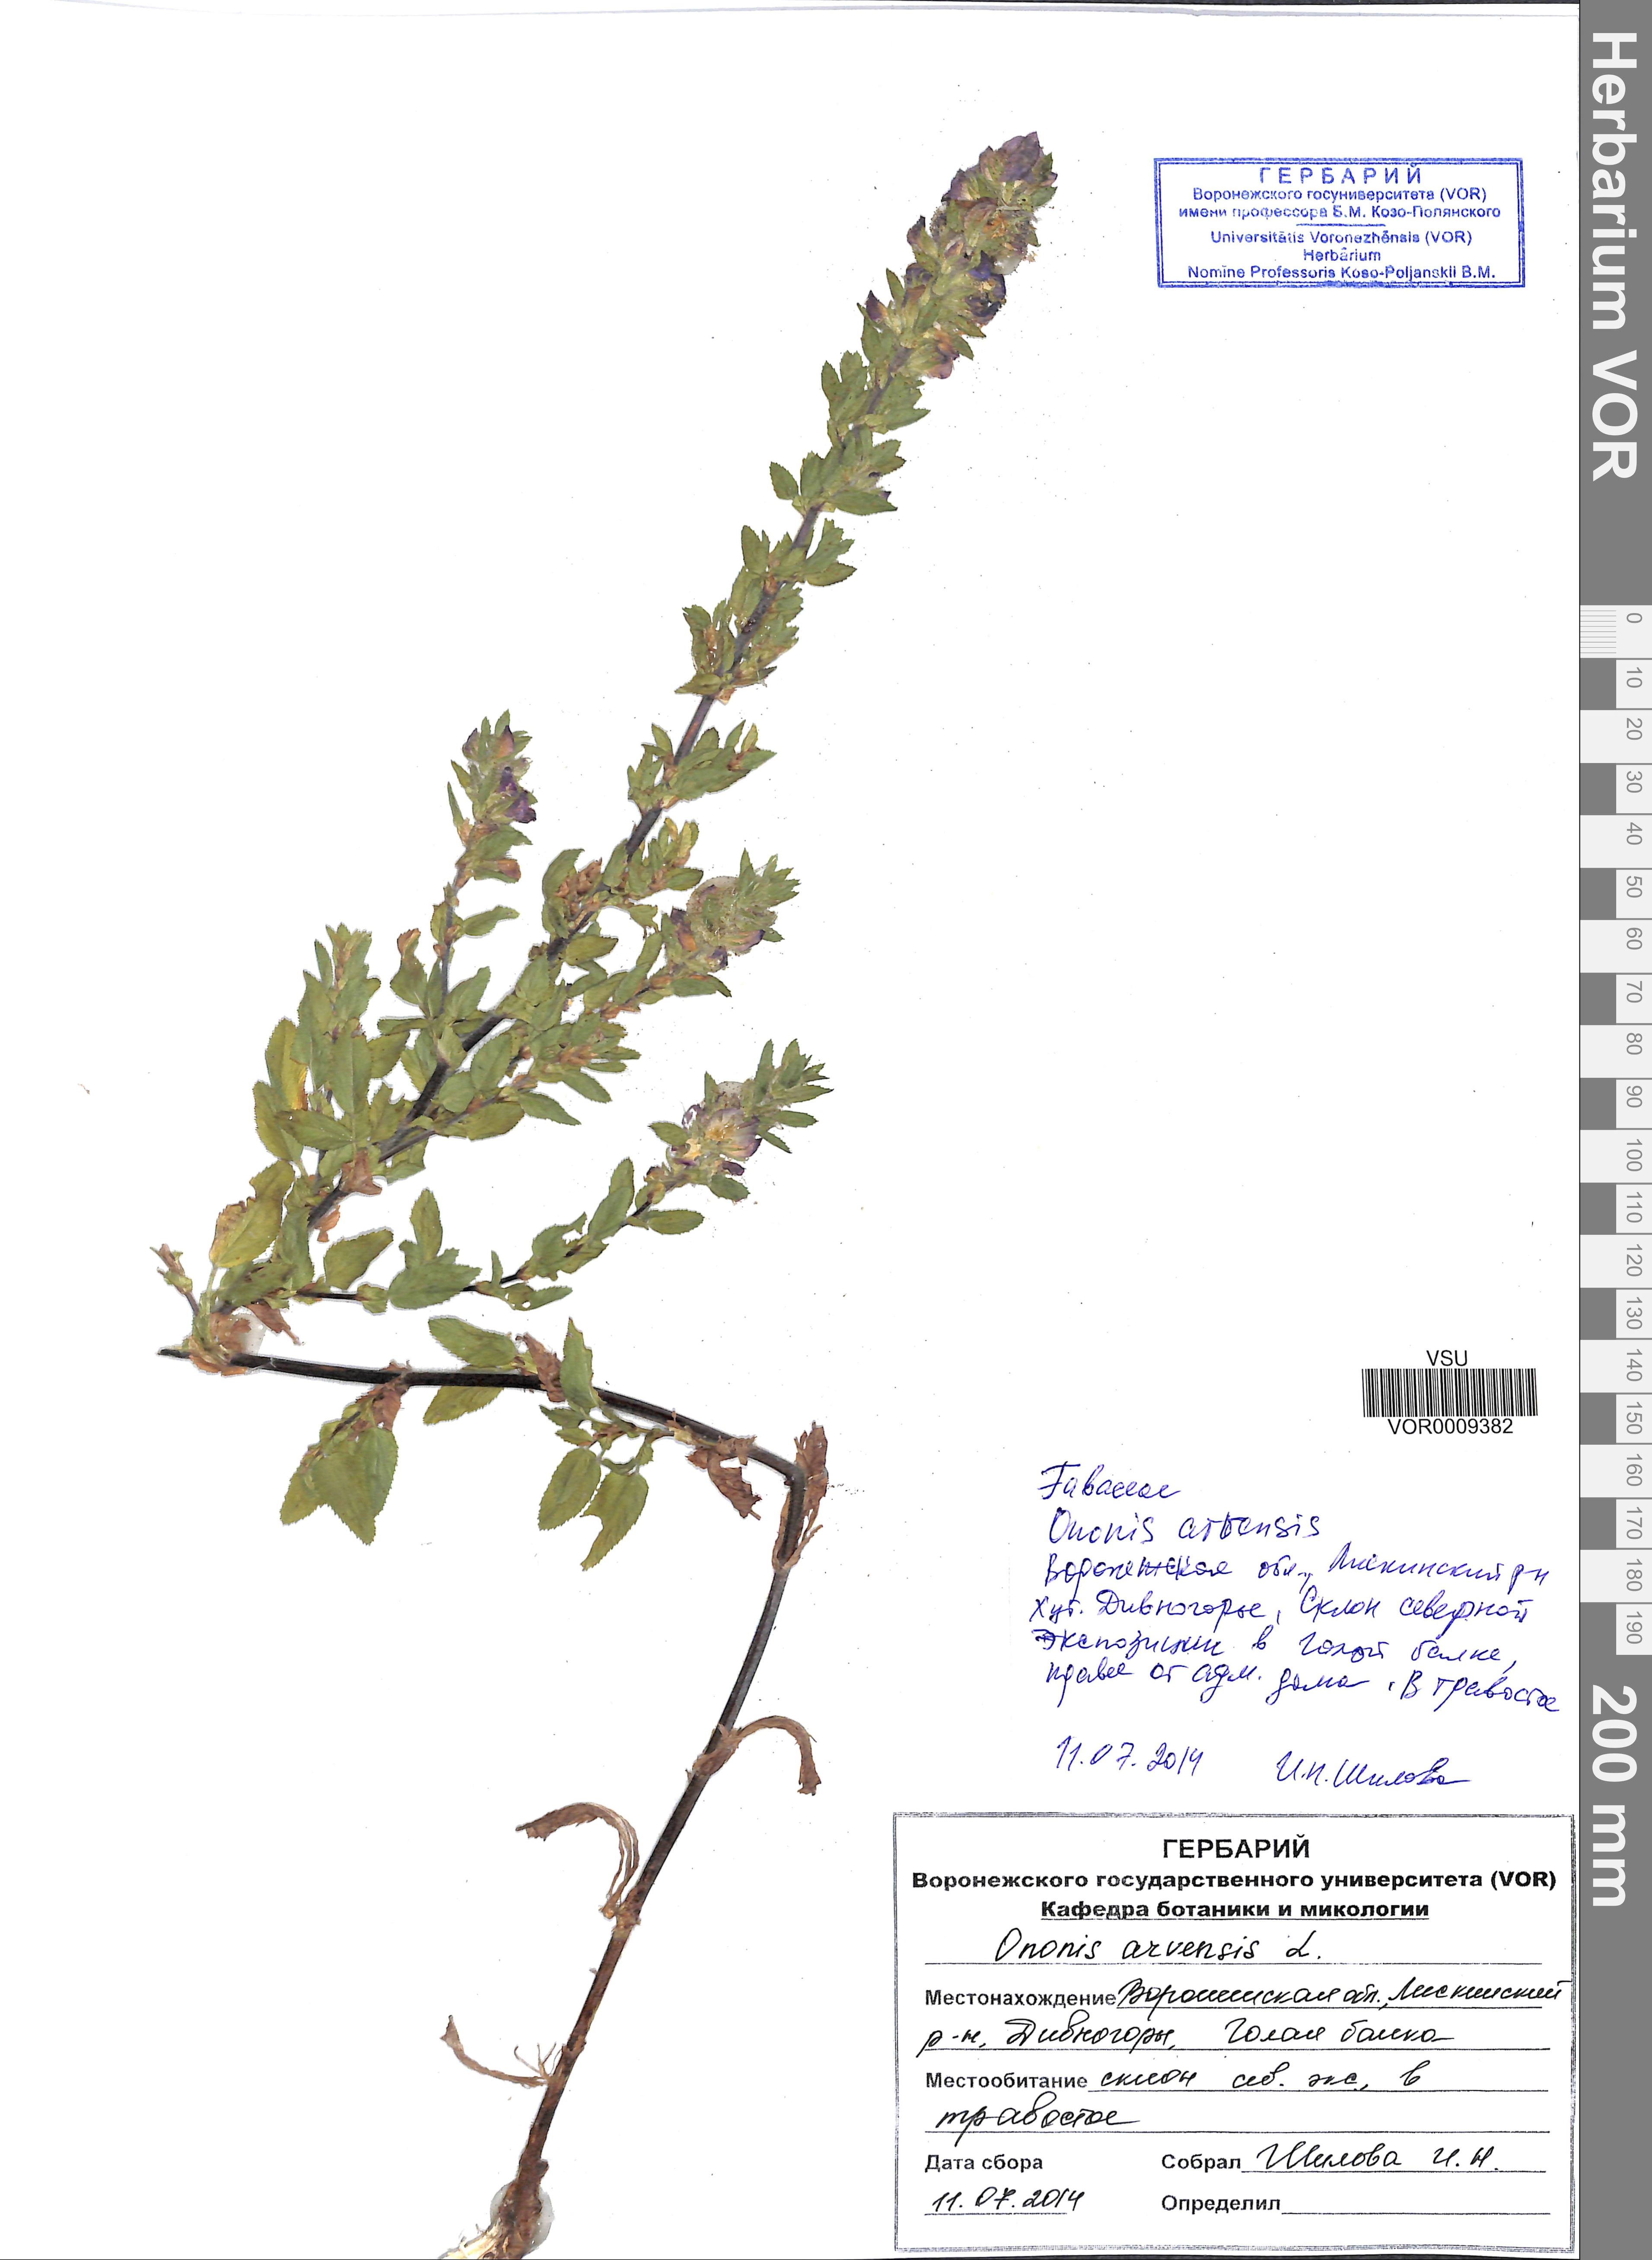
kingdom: Plantae
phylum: Tracheophyta
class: Magnoliopsida
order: Fabales
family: Fabaceae
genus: Ononis
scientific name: Ononis arvensis
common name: Field restharrow
